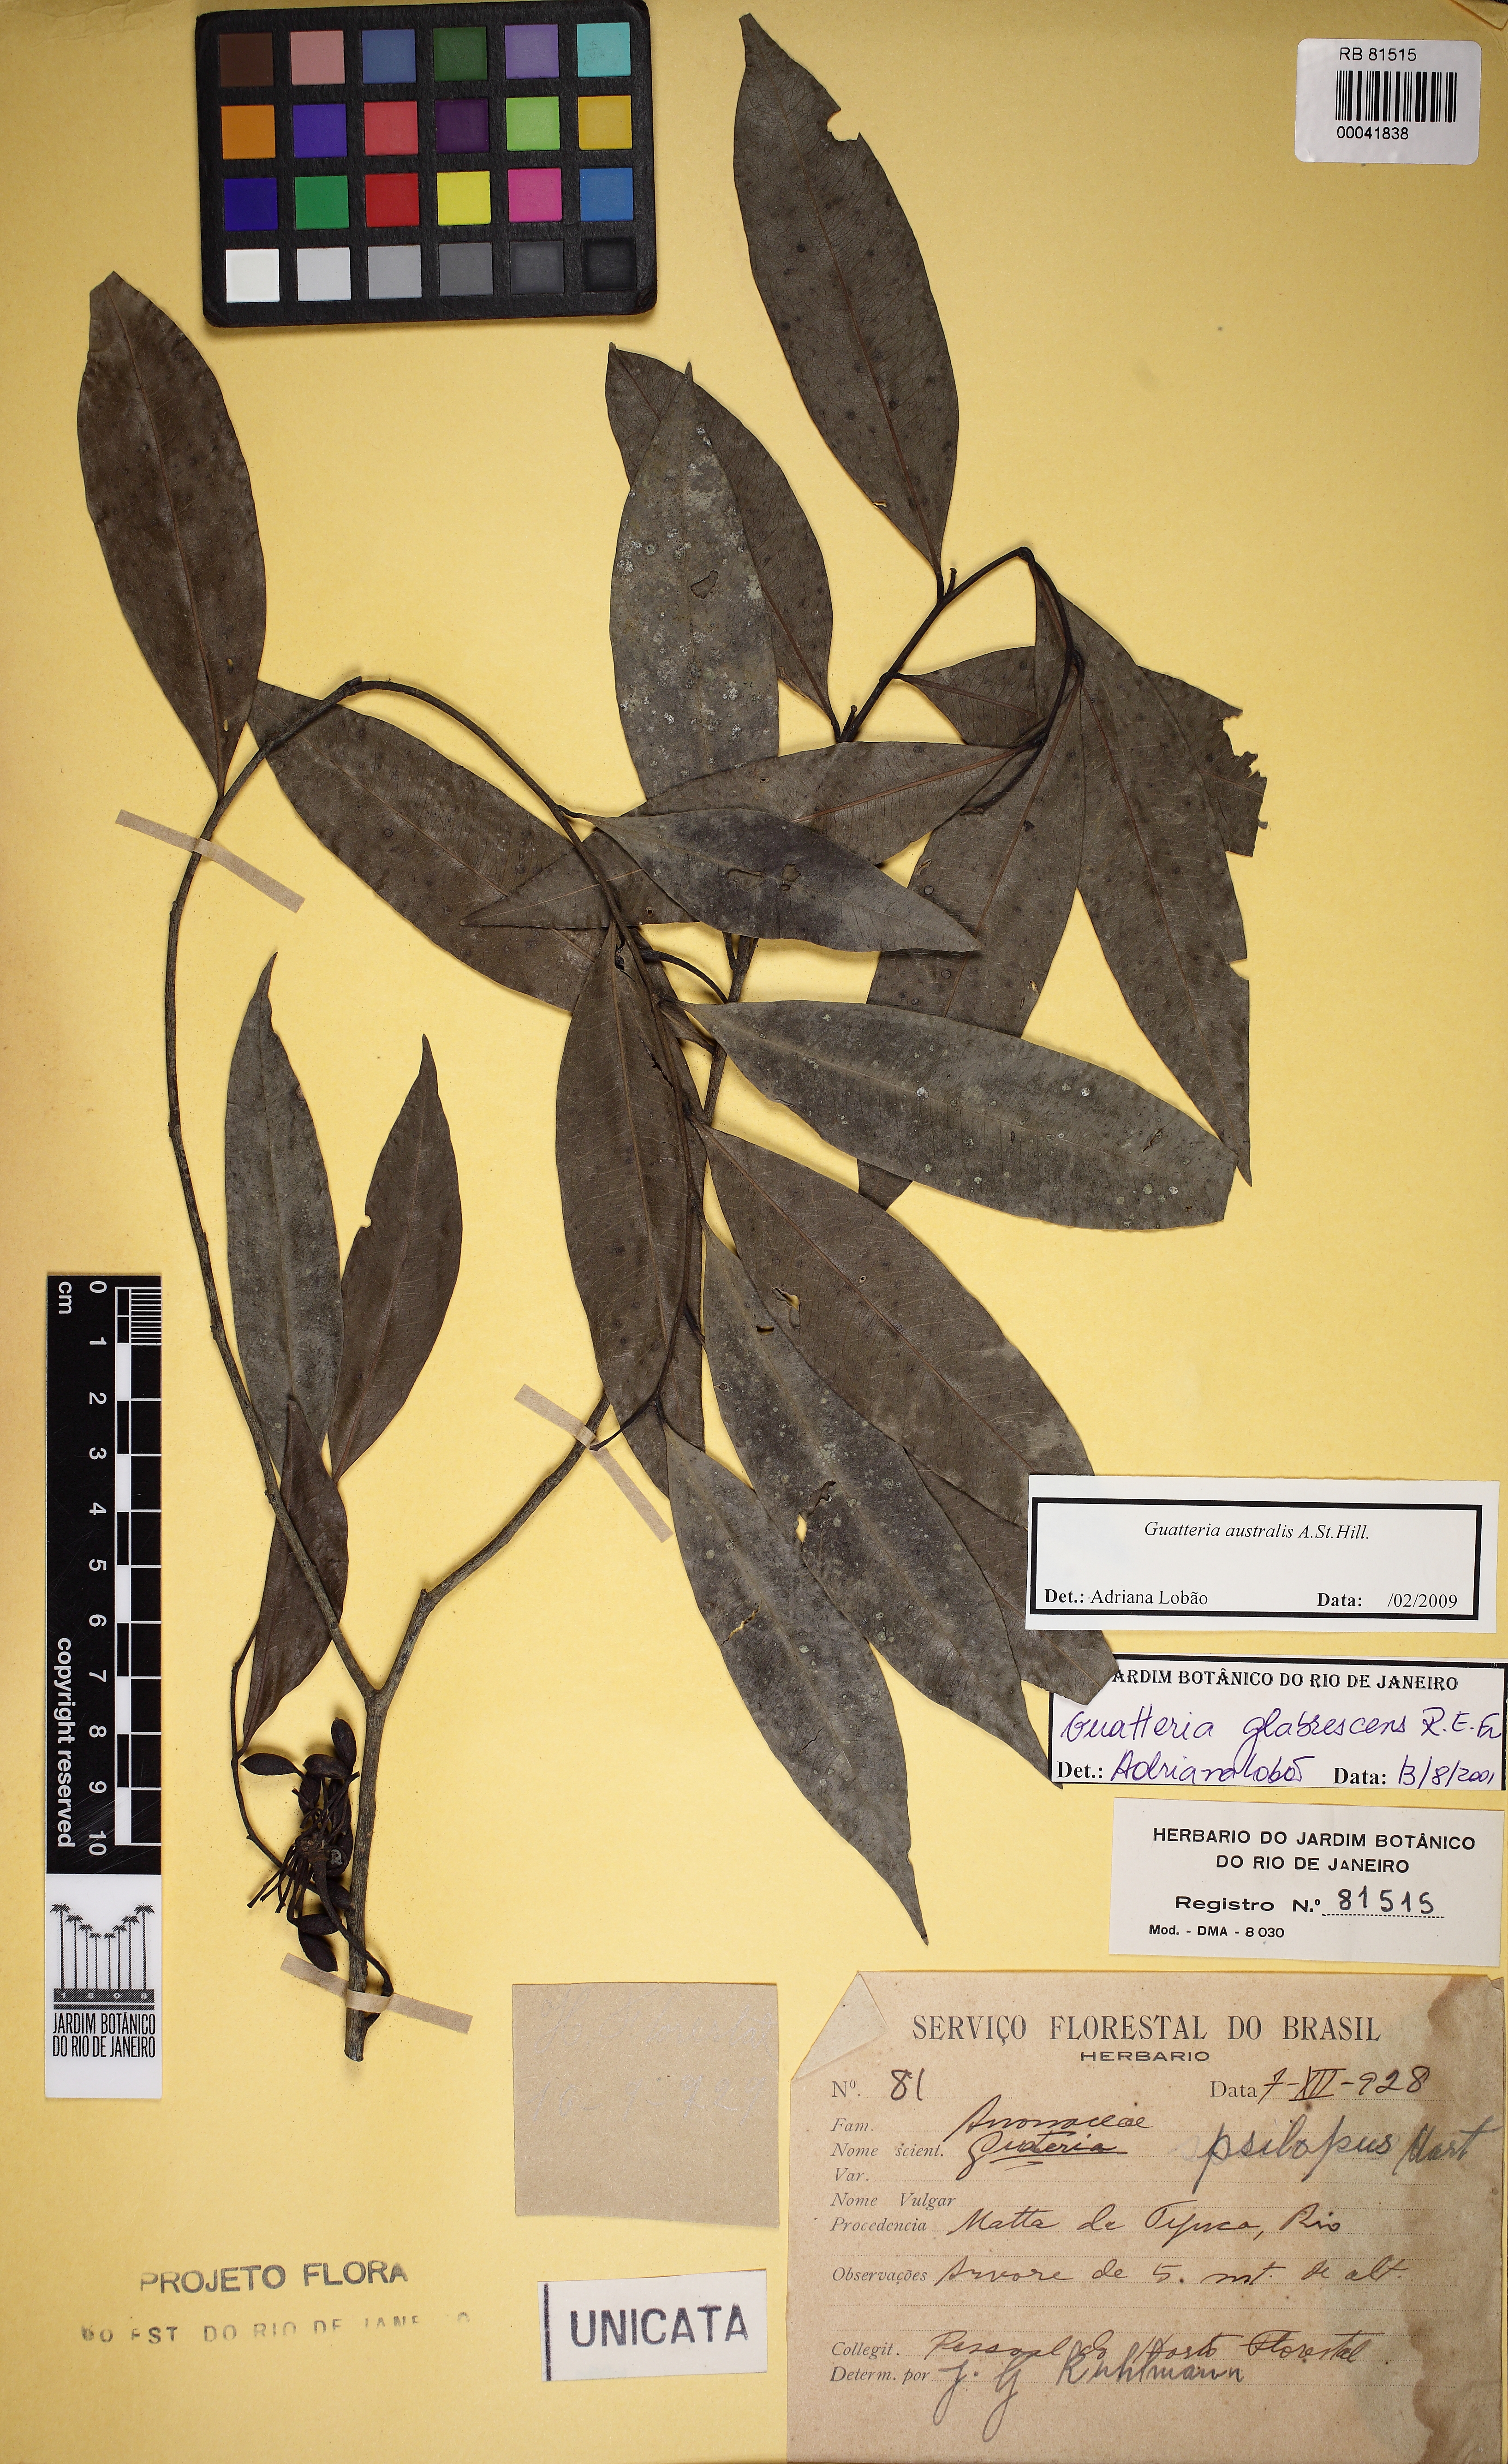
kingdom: Plantae
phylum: Tracheophyta
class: Magnoliopsida
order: Magnoliales
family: Annonaceae
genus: Guatteria
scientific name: Guatteria australis
